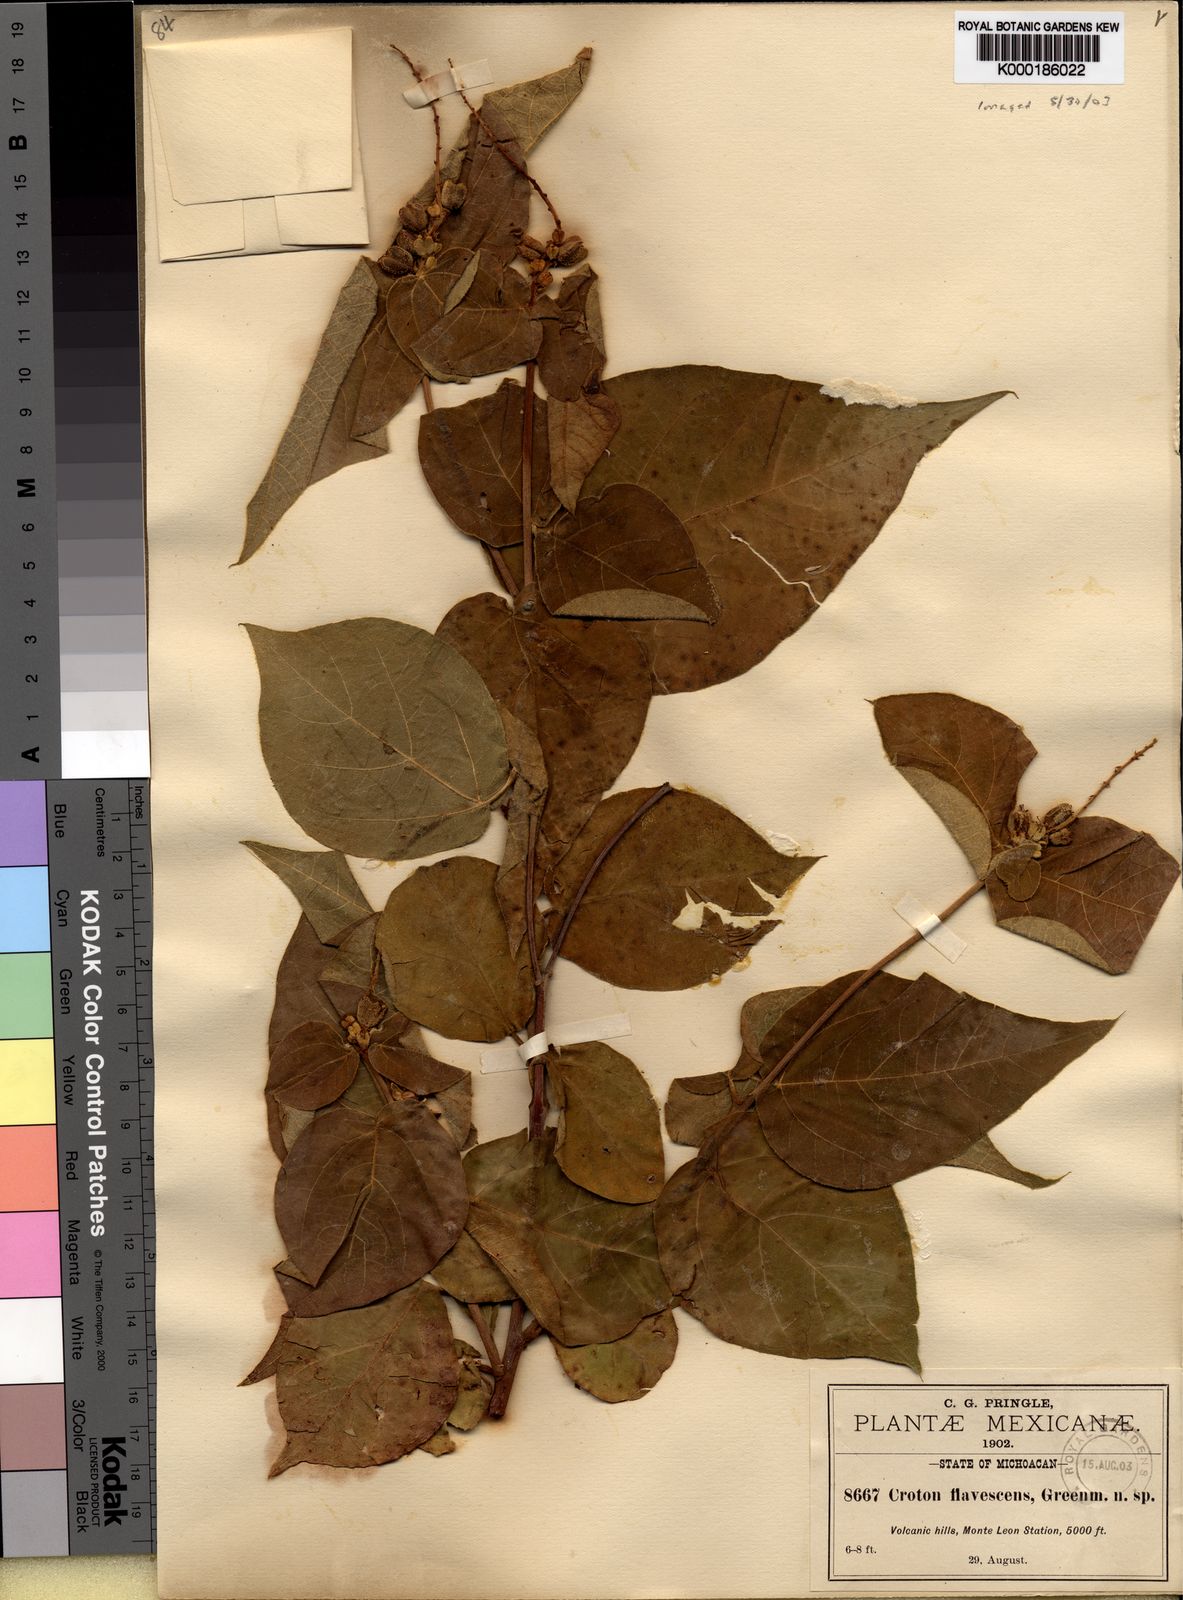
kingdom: Plantae
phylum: Tracheophyta
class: Magnoliopsida
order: Malpighiales
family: Euphorbiaceae
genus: Croton
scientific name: Croton morifolius
